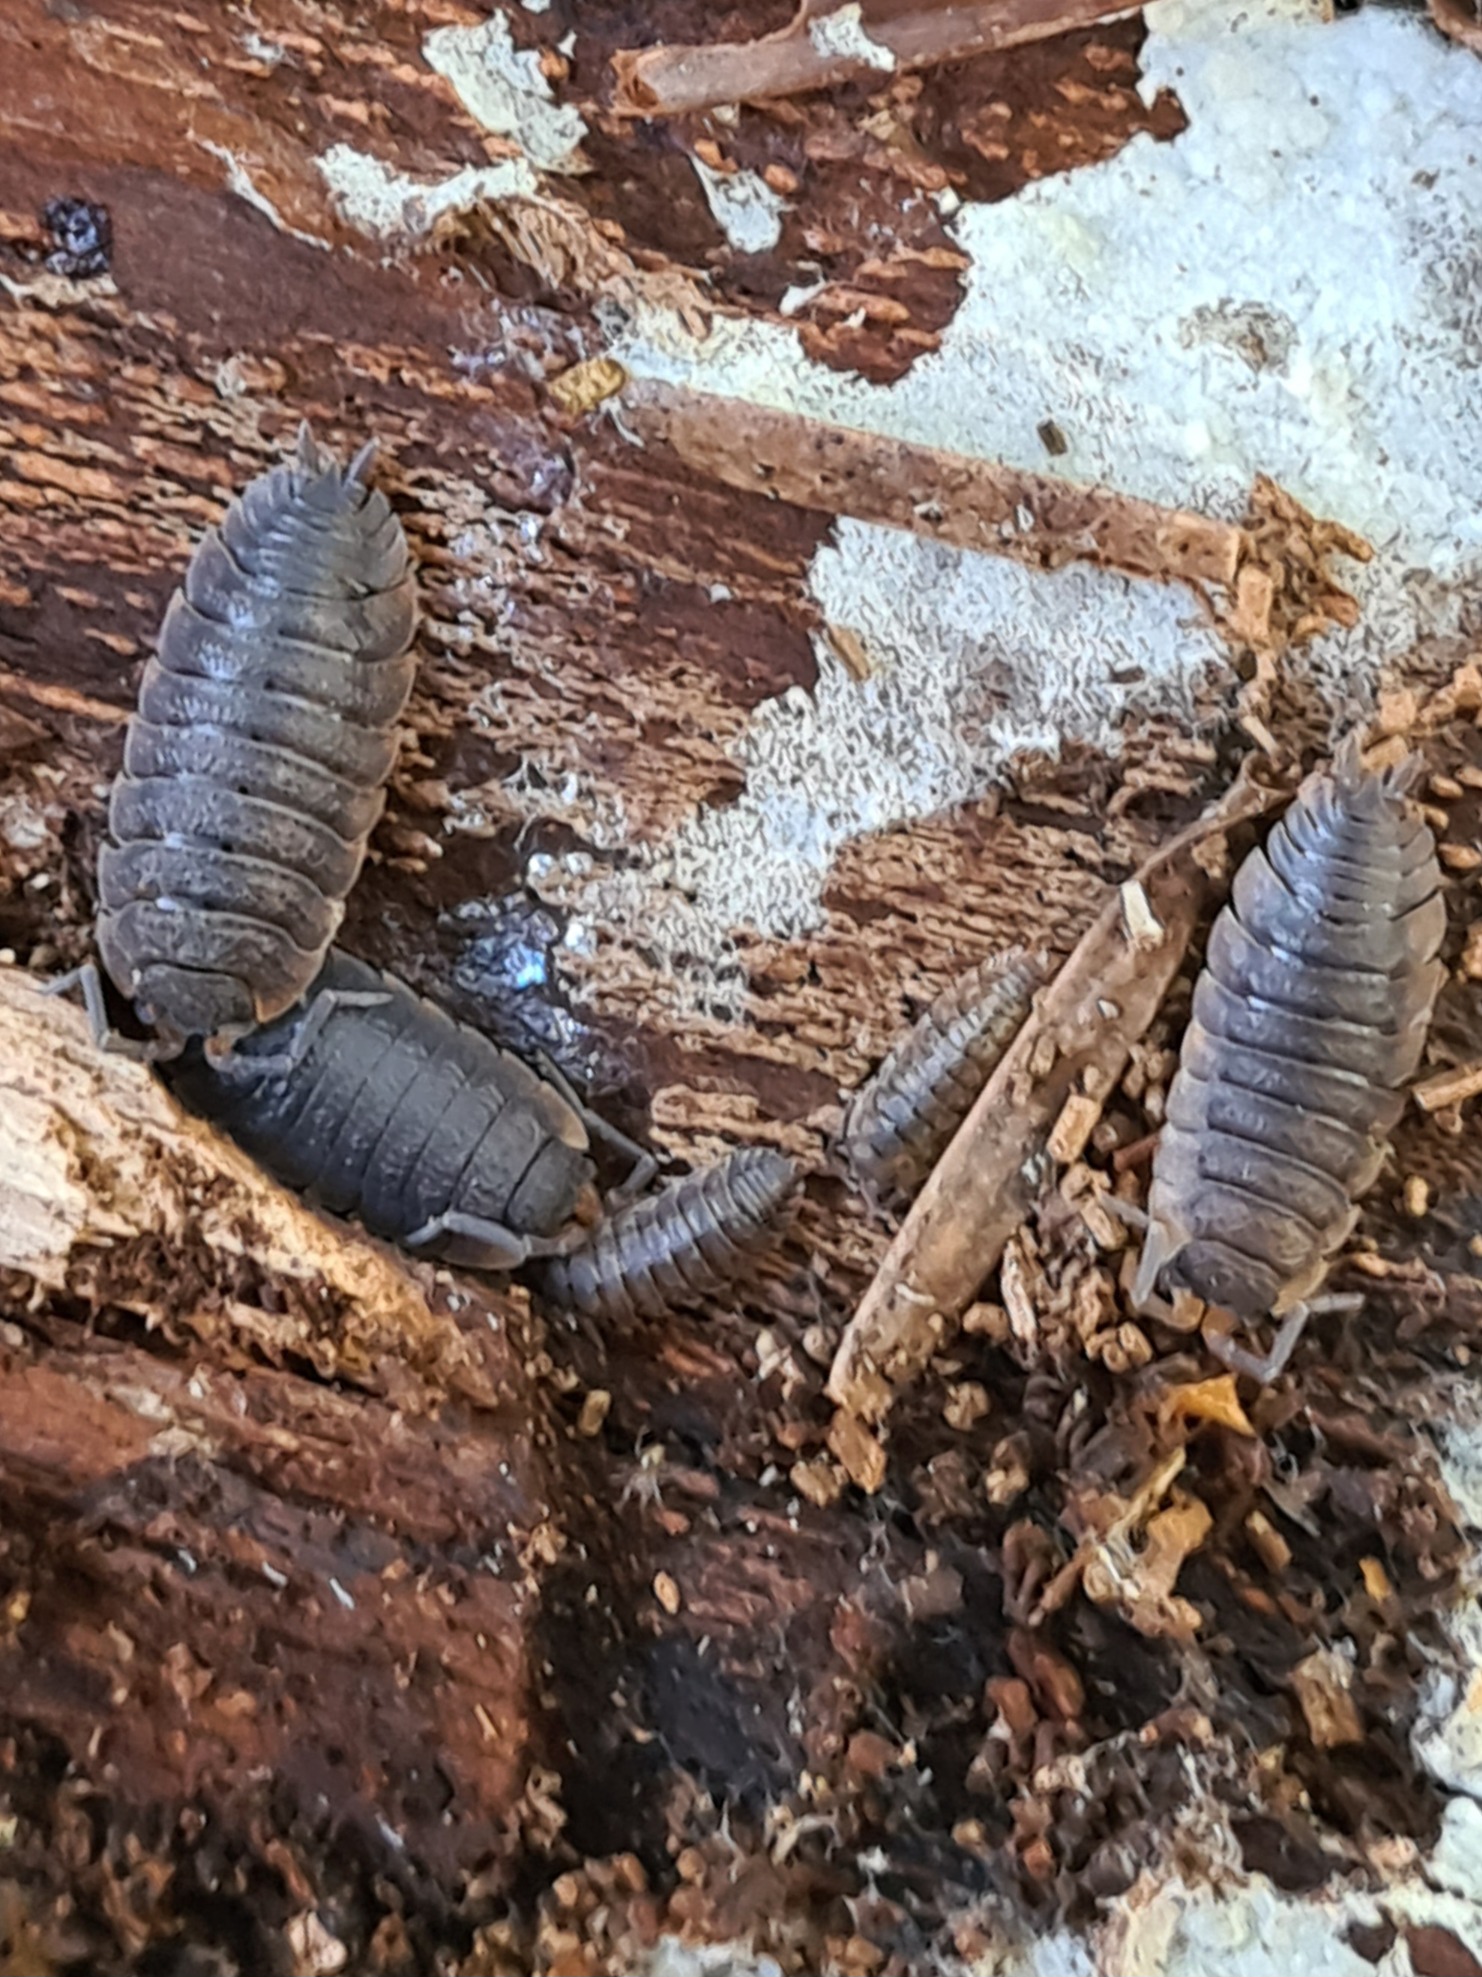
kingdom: Animalia
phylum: Arthropoda
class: Malacostraca
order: Isopoda
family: Porcellionidae
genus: Porcellio
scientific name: Porcellio scaber
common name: Grå bænkebider
